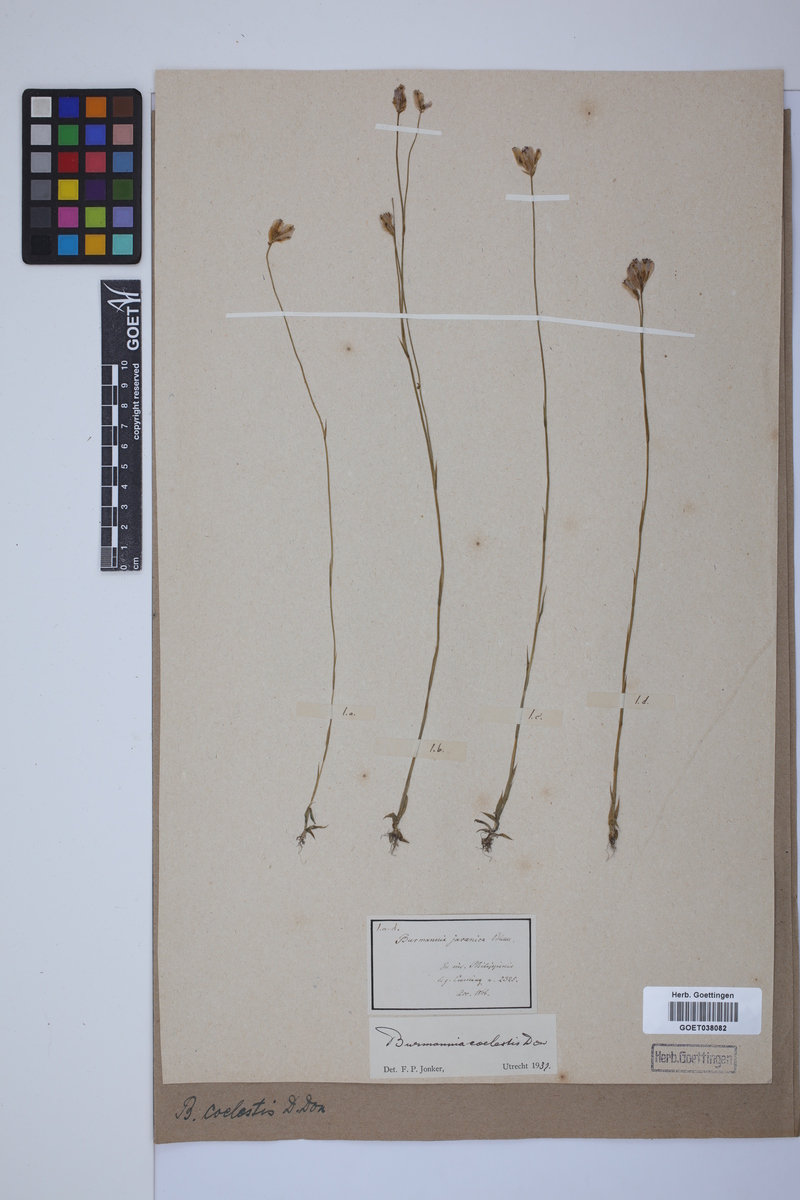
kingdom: Plantae
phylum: Tracheophyta
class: Liliopsida
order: Dioscoreales
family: Burmanniaceae
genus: Burmannia
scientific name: Burmannia coelestis
